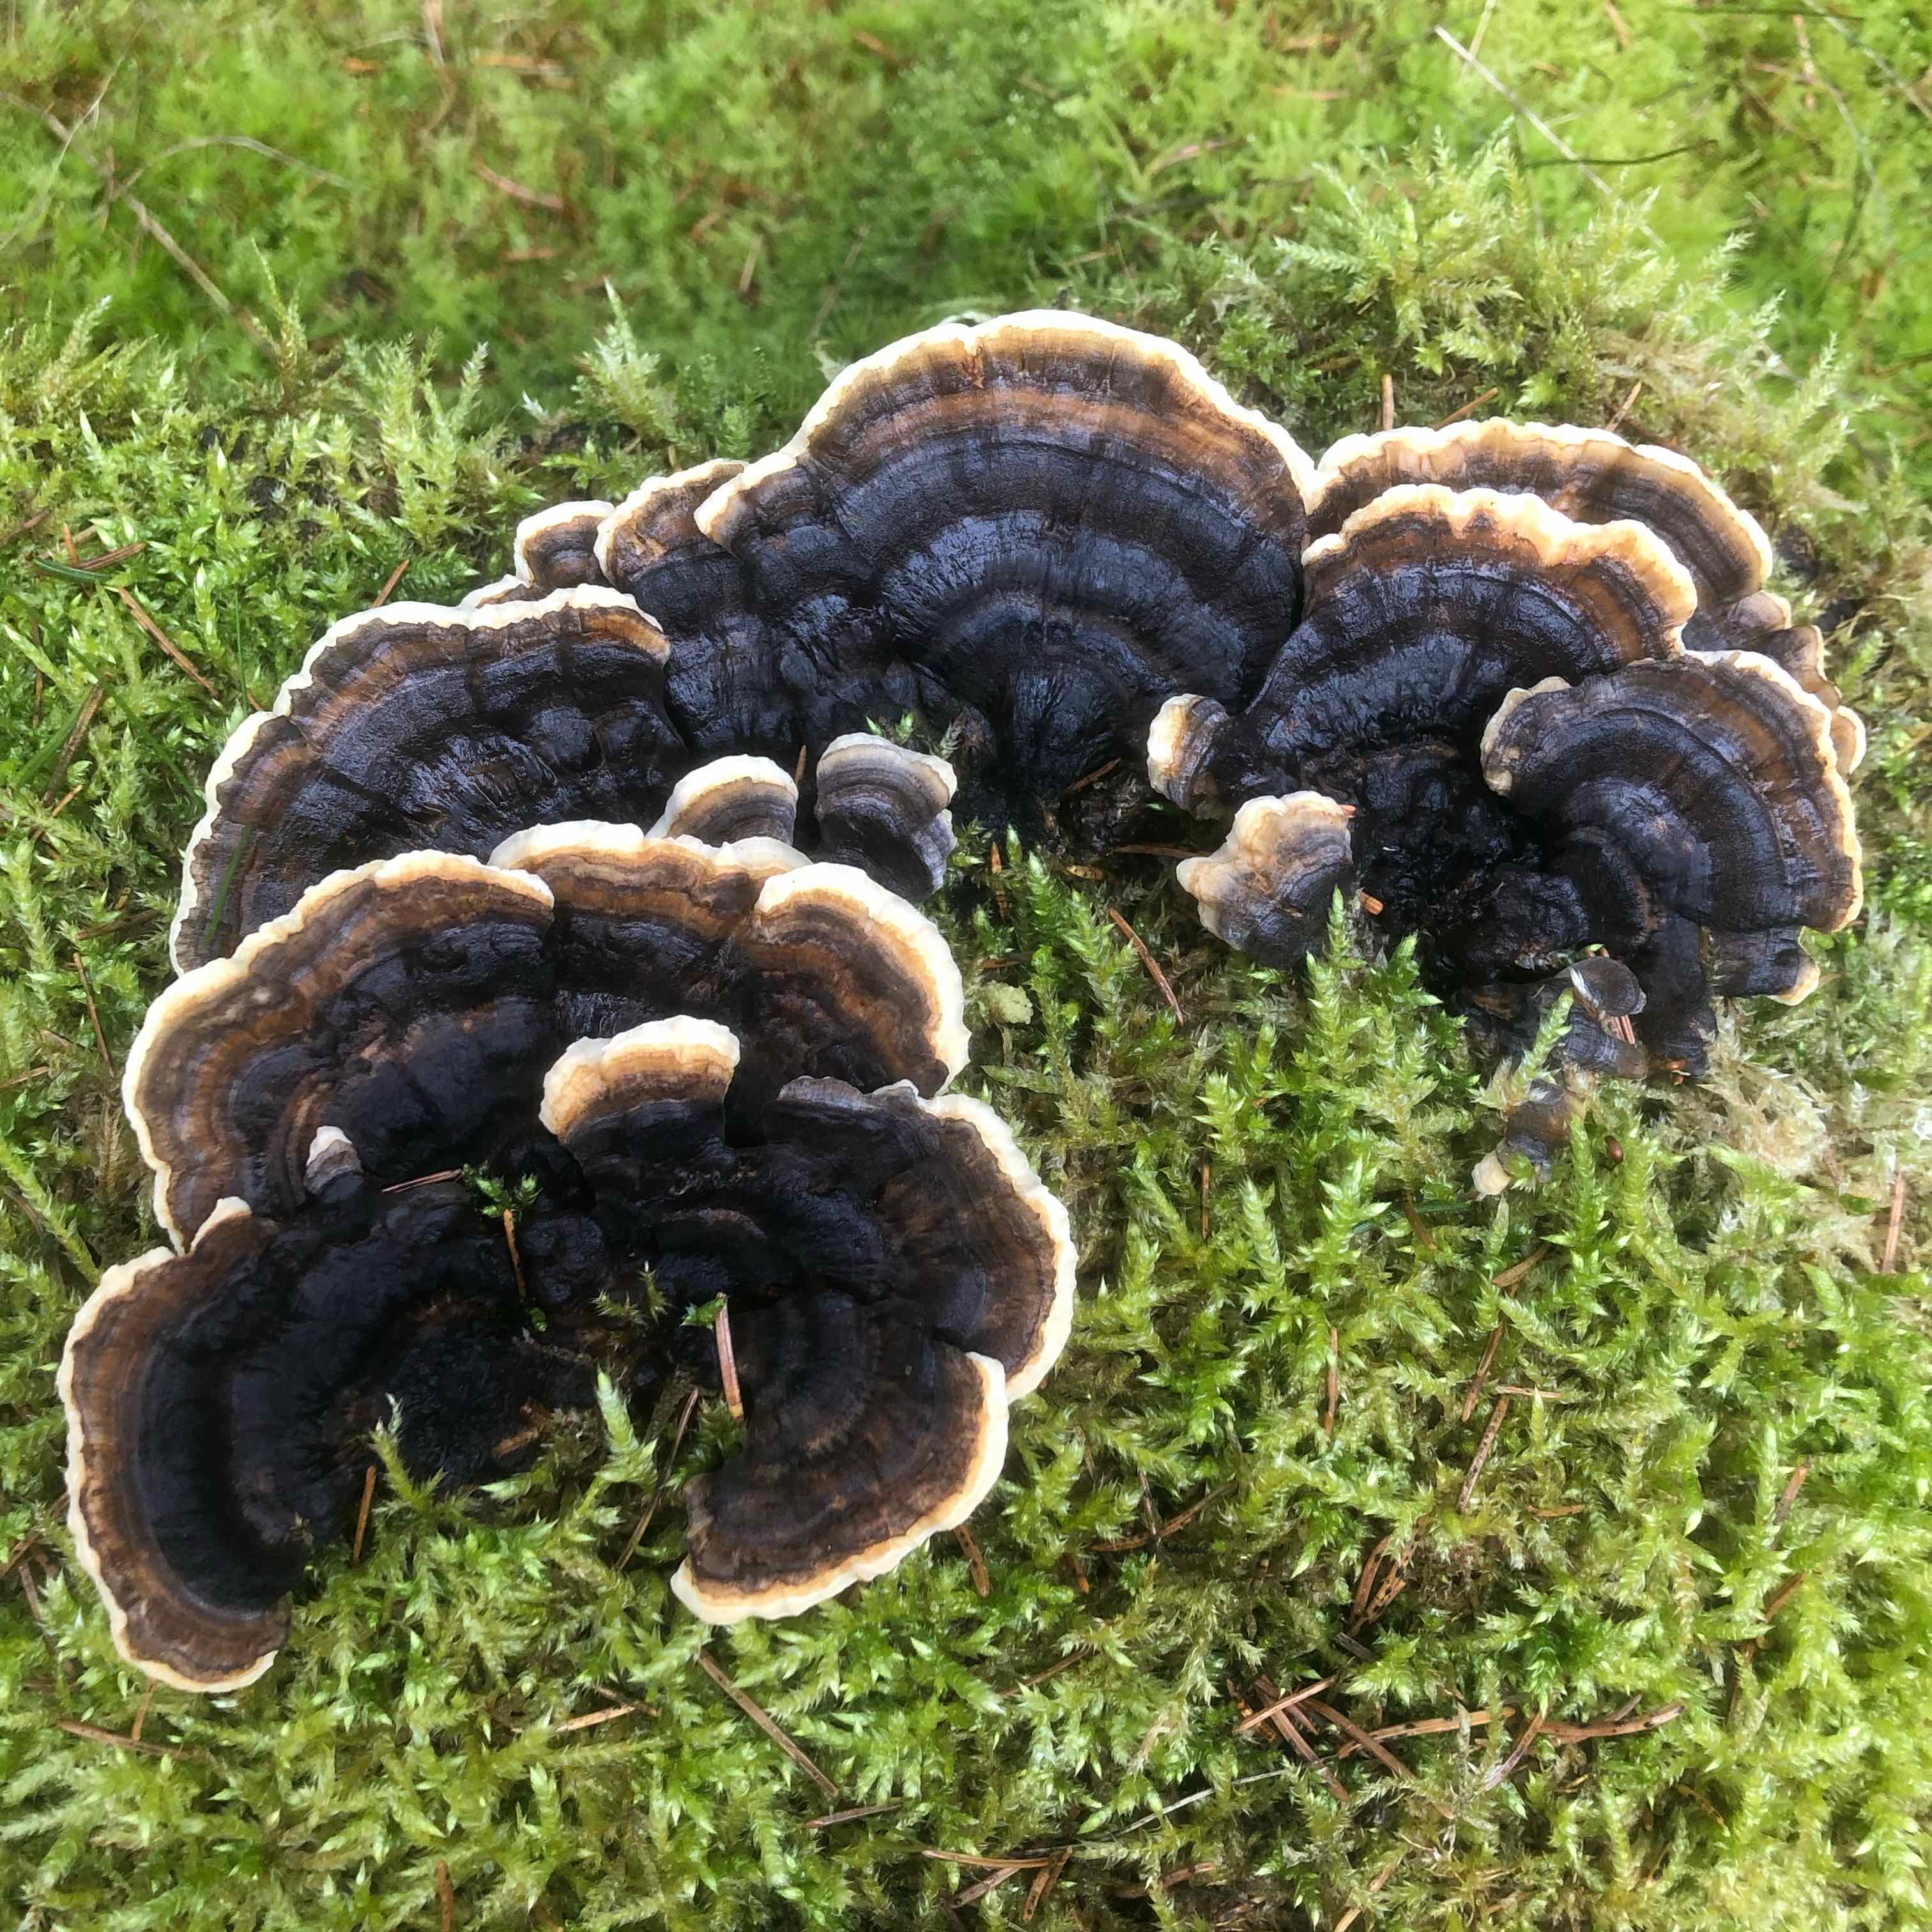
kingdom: Fungi
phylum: Basidiomycota
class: Agaricomycetes
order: Polyporales
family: Polyporaceae
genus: Trametes
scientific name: Trametes versicolor
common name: broget læderporesvamp
